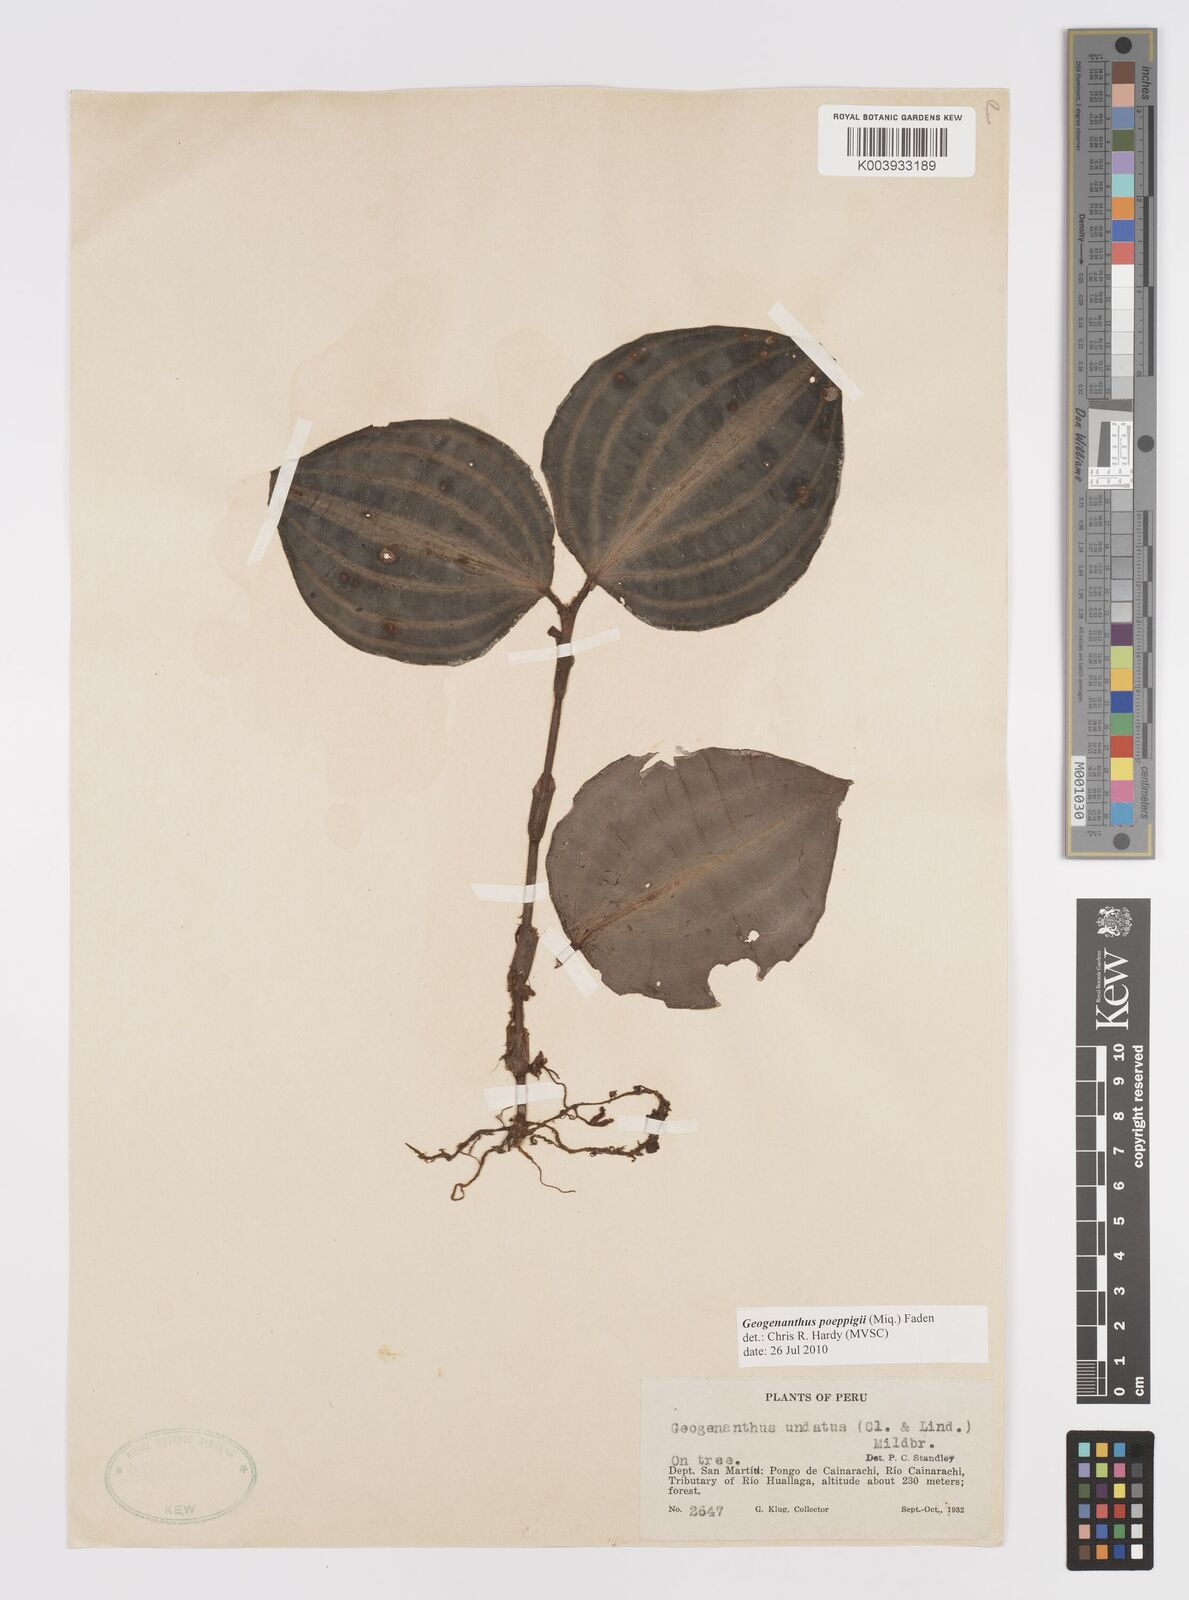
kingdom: Plantae
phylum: Tracheophyta
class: Liliopsida
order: Commelinales
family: Commelinaceae
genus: Geogenanthus
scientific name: Geogenanthus poeppigii
